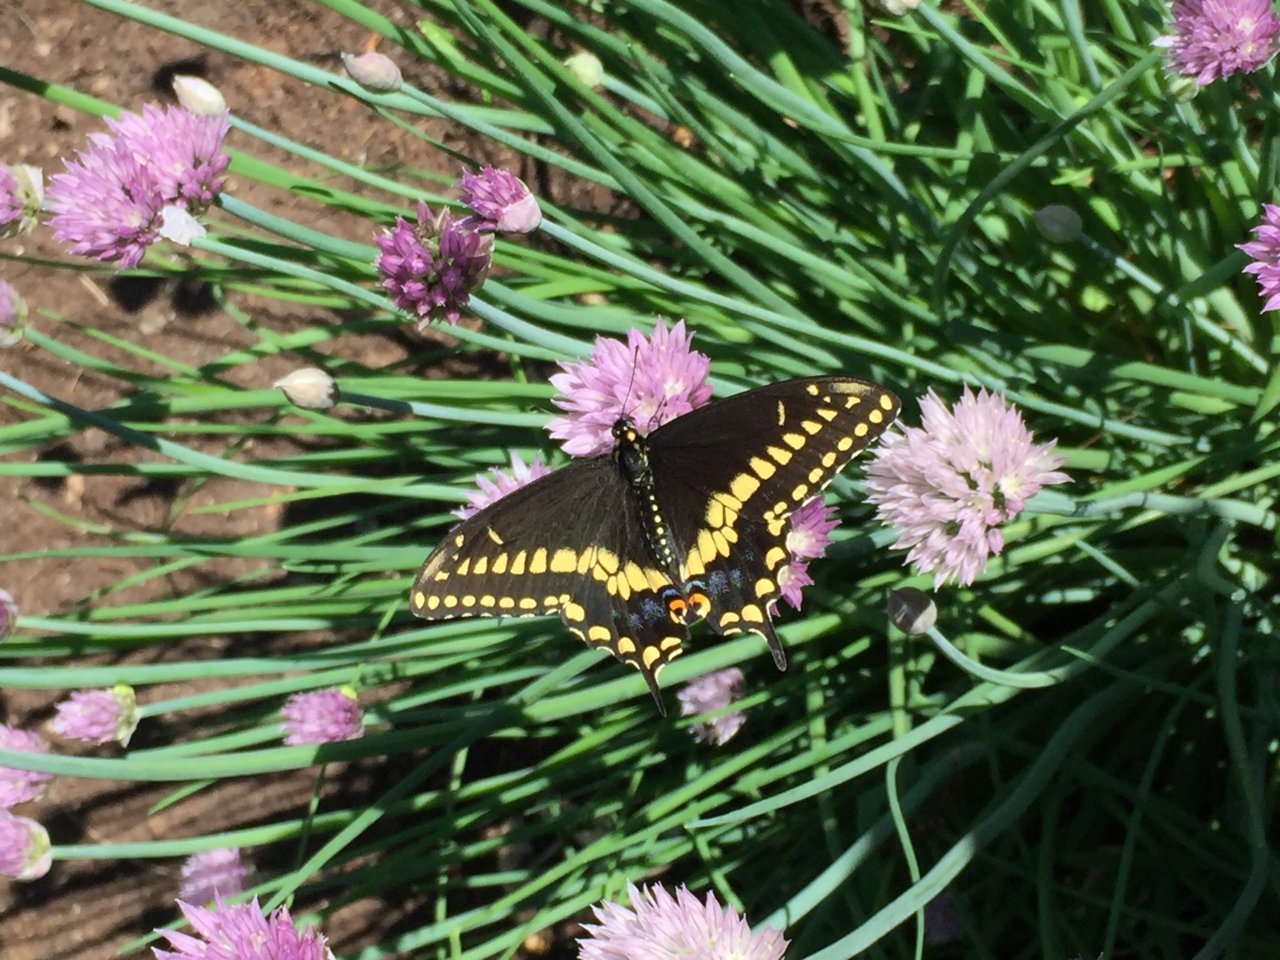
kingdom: Animalia
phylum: Arthropoda
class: Insecta
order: Lepidoptera
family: Papilionidae
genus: Papilio
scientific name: Papilio polyxenes
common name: Black Swallowtail
